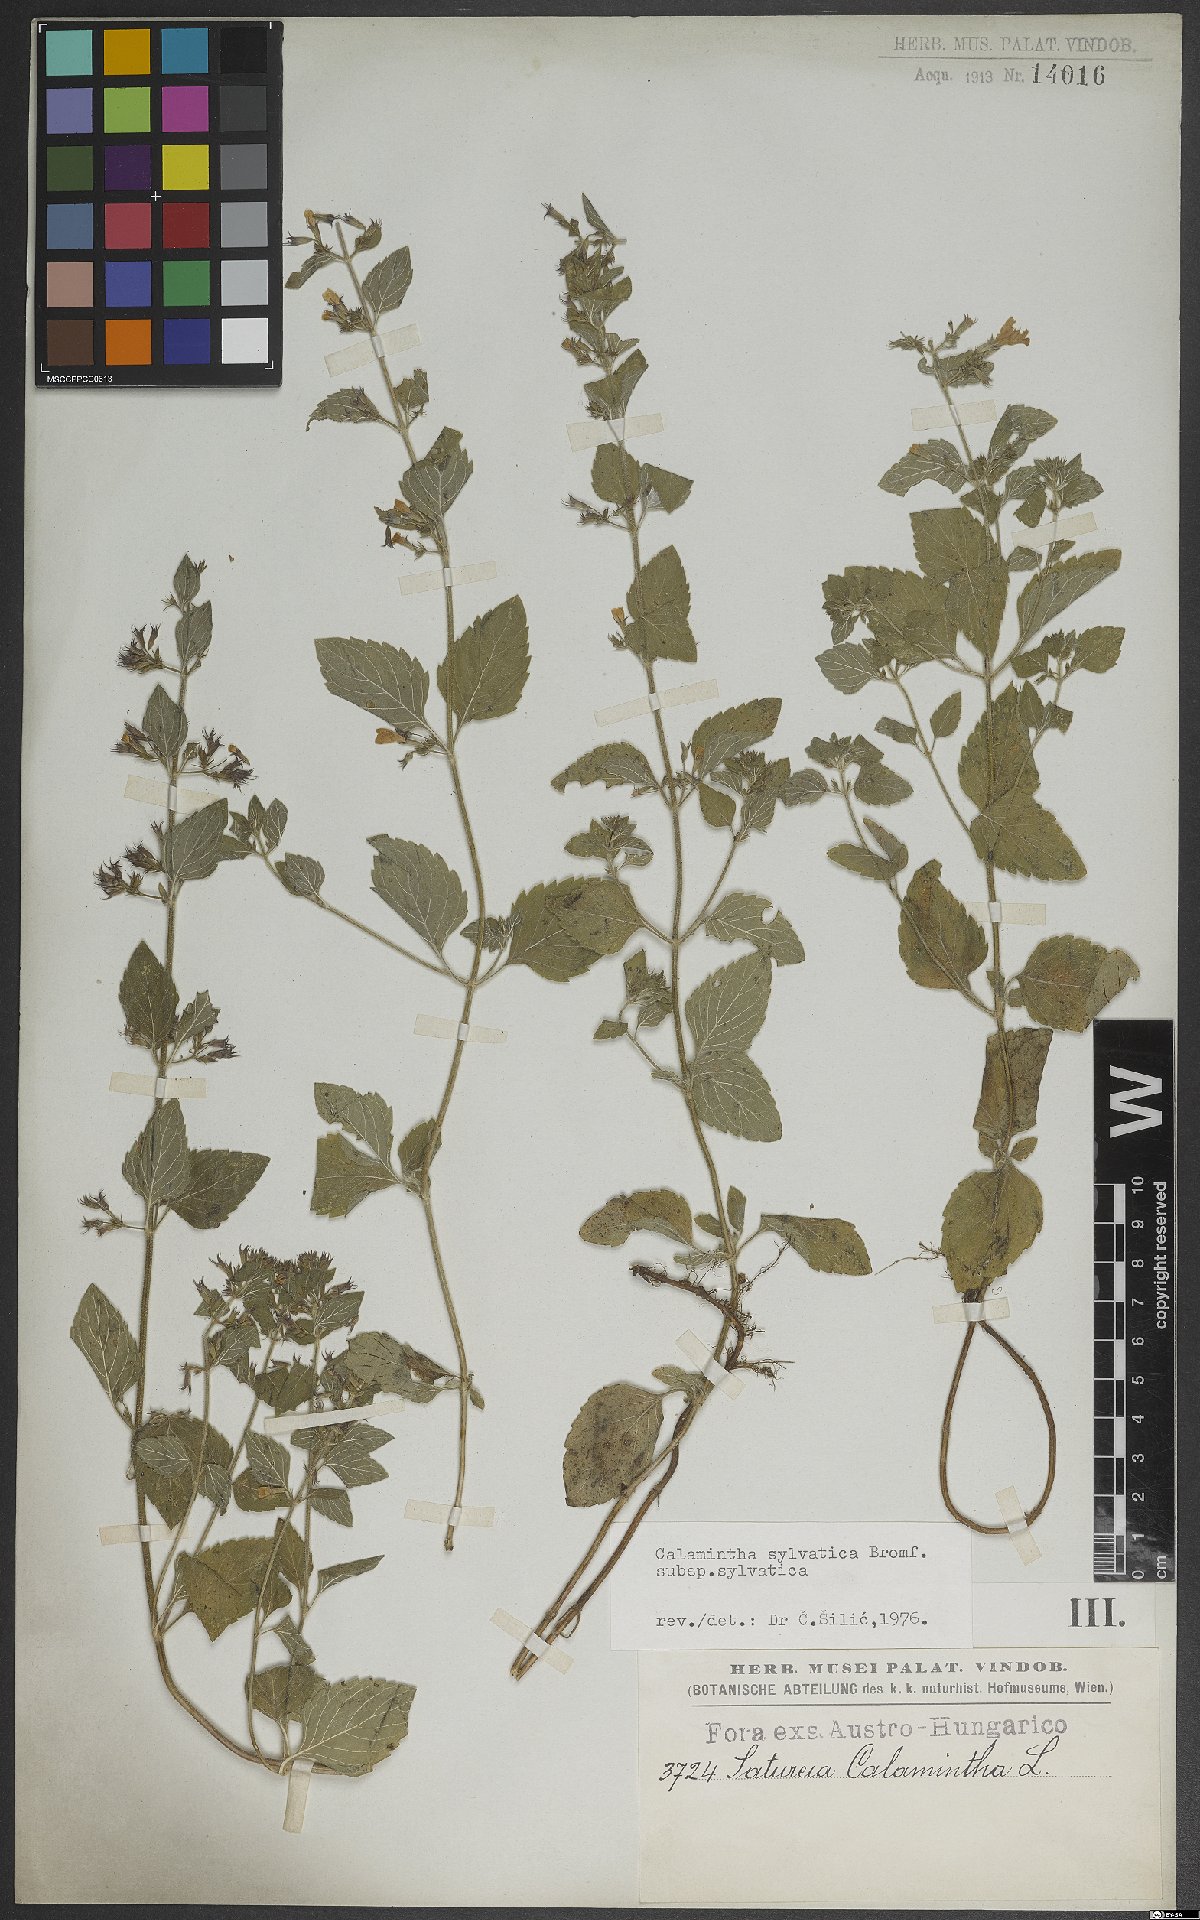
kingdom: Plantae
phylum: Tracheophyta
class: Magnoliopsida
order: Lamiales
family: Lamiaceae
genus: Clinopodium
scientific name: Clinopodium menthifolium
